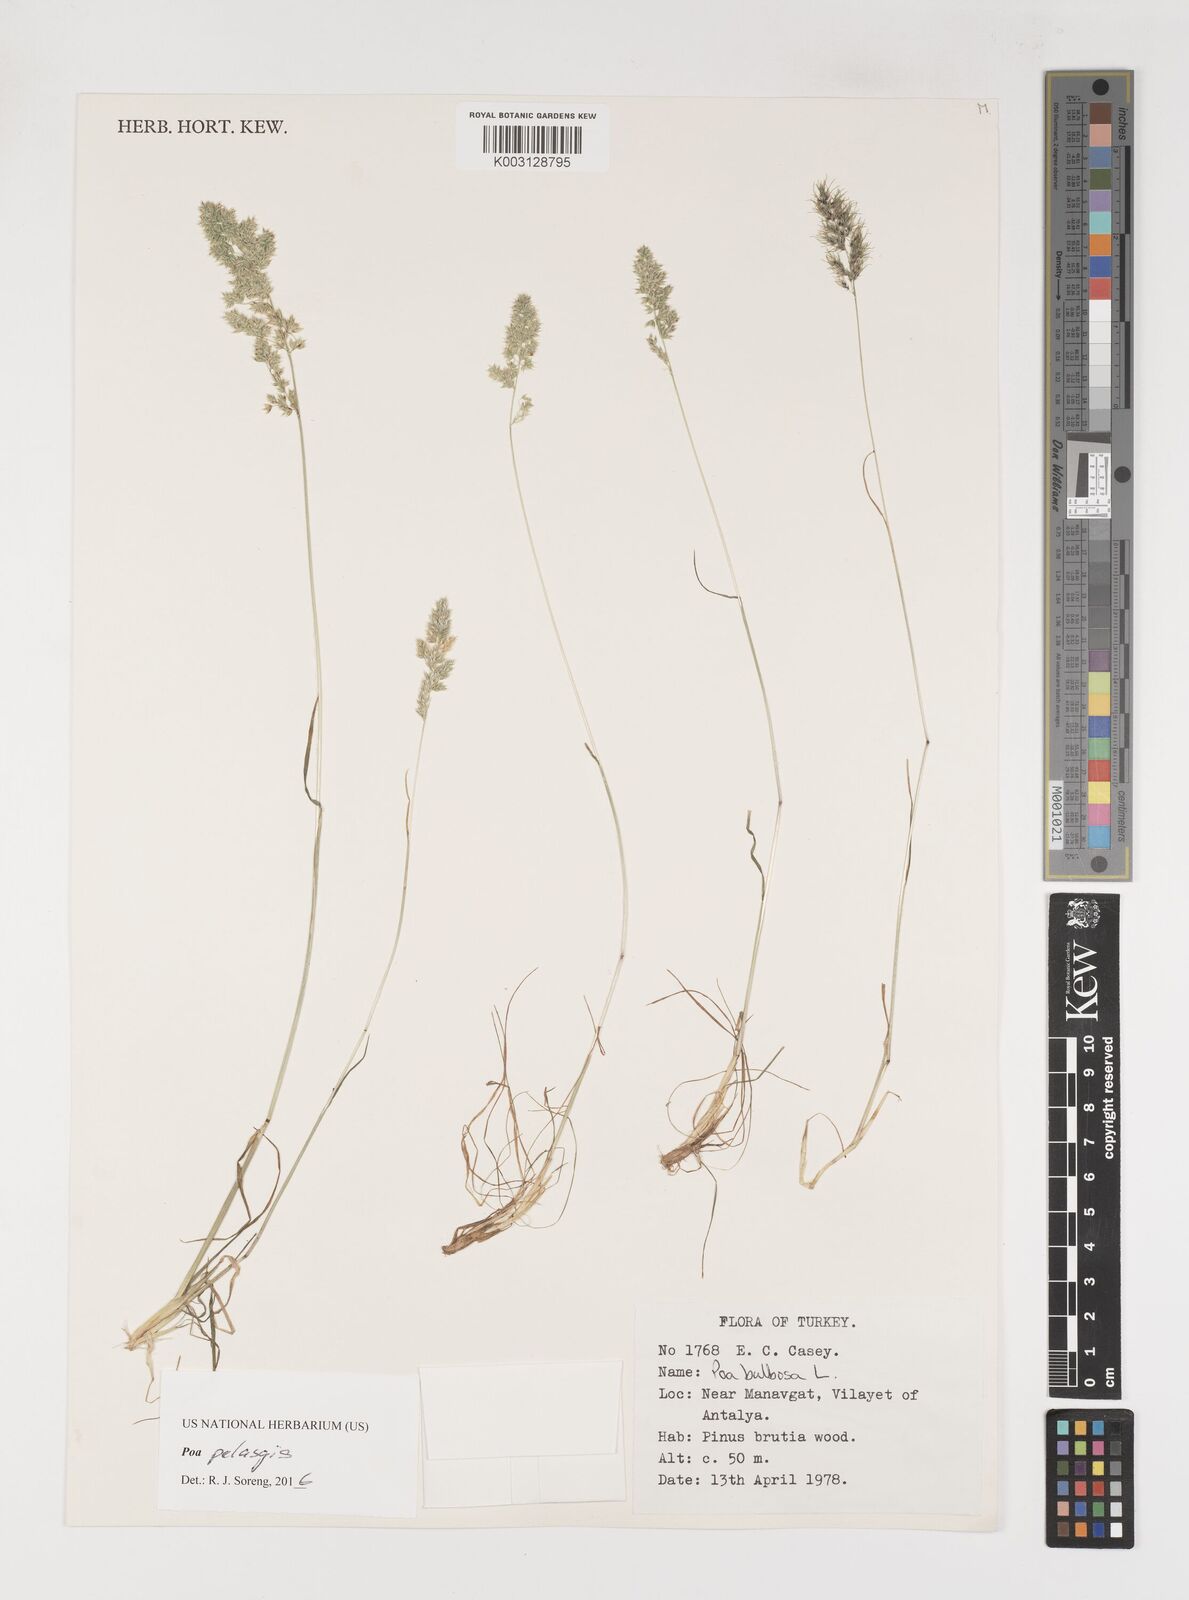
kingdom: Plantae
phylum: Tracheophyta
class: Liliopsida
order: Poales
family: Poaceae
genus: Poa
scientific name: Poa iconia
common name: Konya bluegrass
